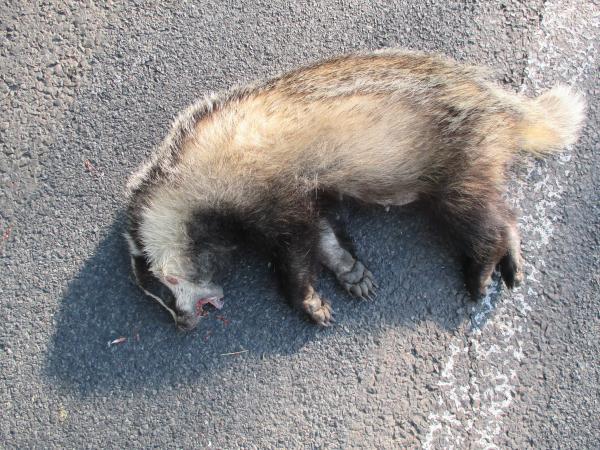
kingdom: Animalia
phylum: Chordata
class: Mammalia
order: Carnivora
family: Mustelidae
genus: Meles
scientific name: Meles meles
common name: Eurasian badger
